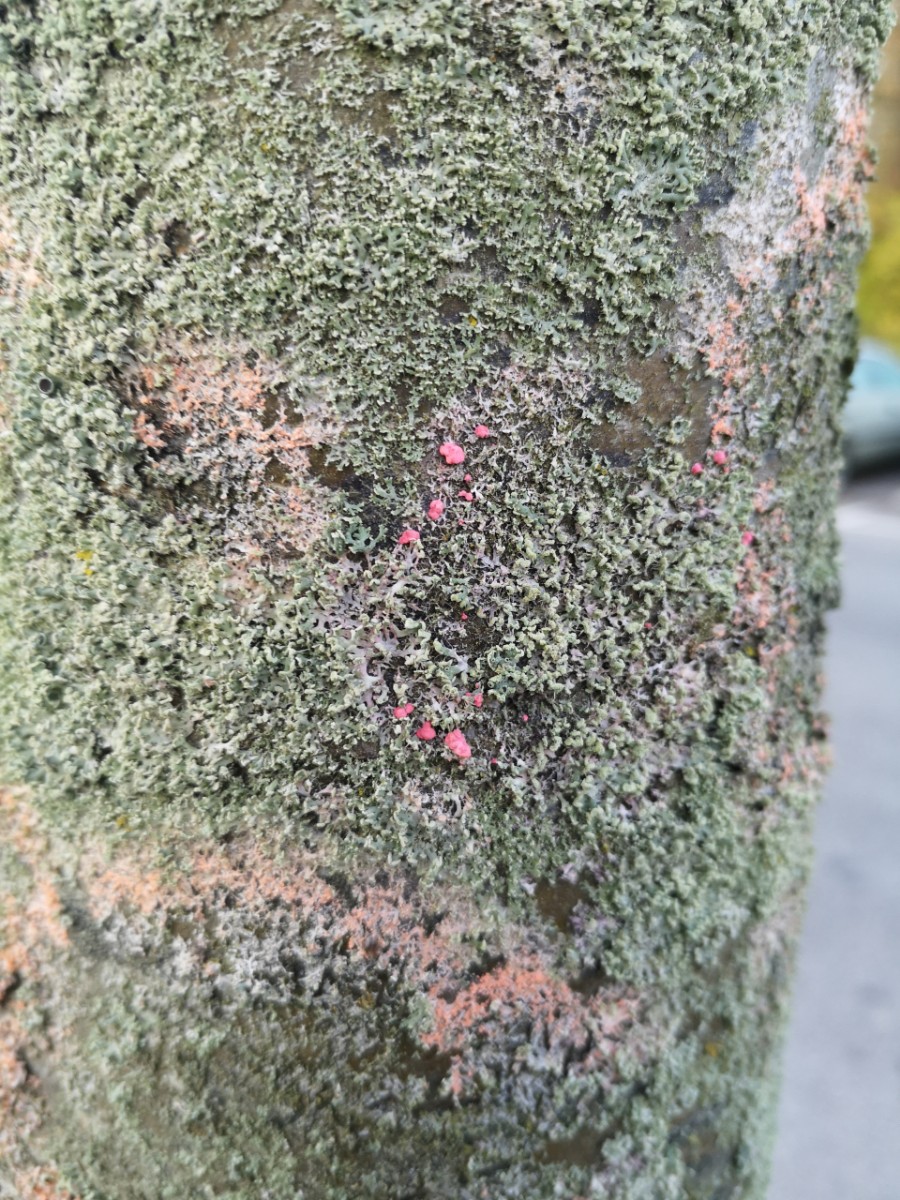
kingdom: Fungi
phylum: Basidiomycota
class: Agaricomycetes
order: Corticiales
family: Corticiaceae
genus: Erythricium
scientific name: Erythricium aurantiacum
